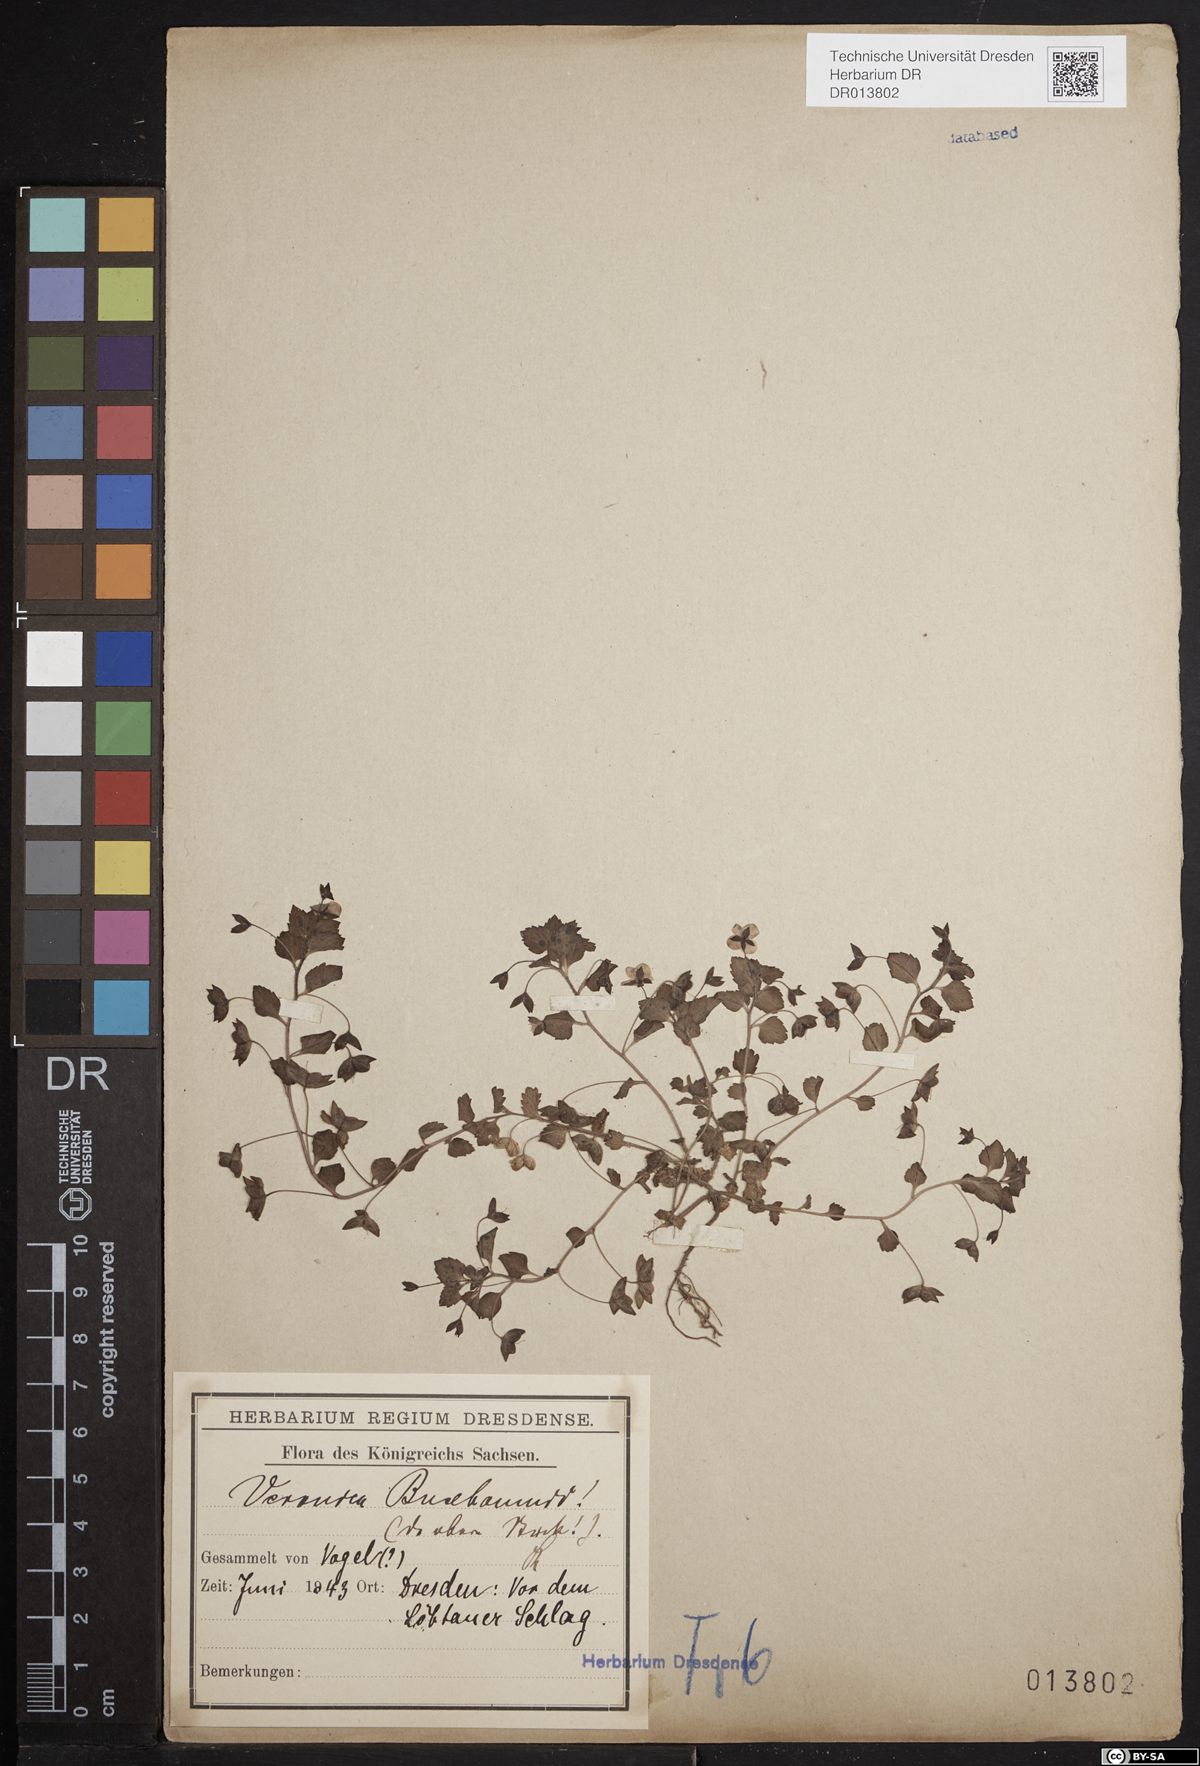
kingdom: Plantae
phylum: Tracheophyta
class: Magnoliopsida
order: Lamiales
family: Plantaginaceae
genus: Veronica
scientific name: Veronica persica
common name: Common field-speedwell
